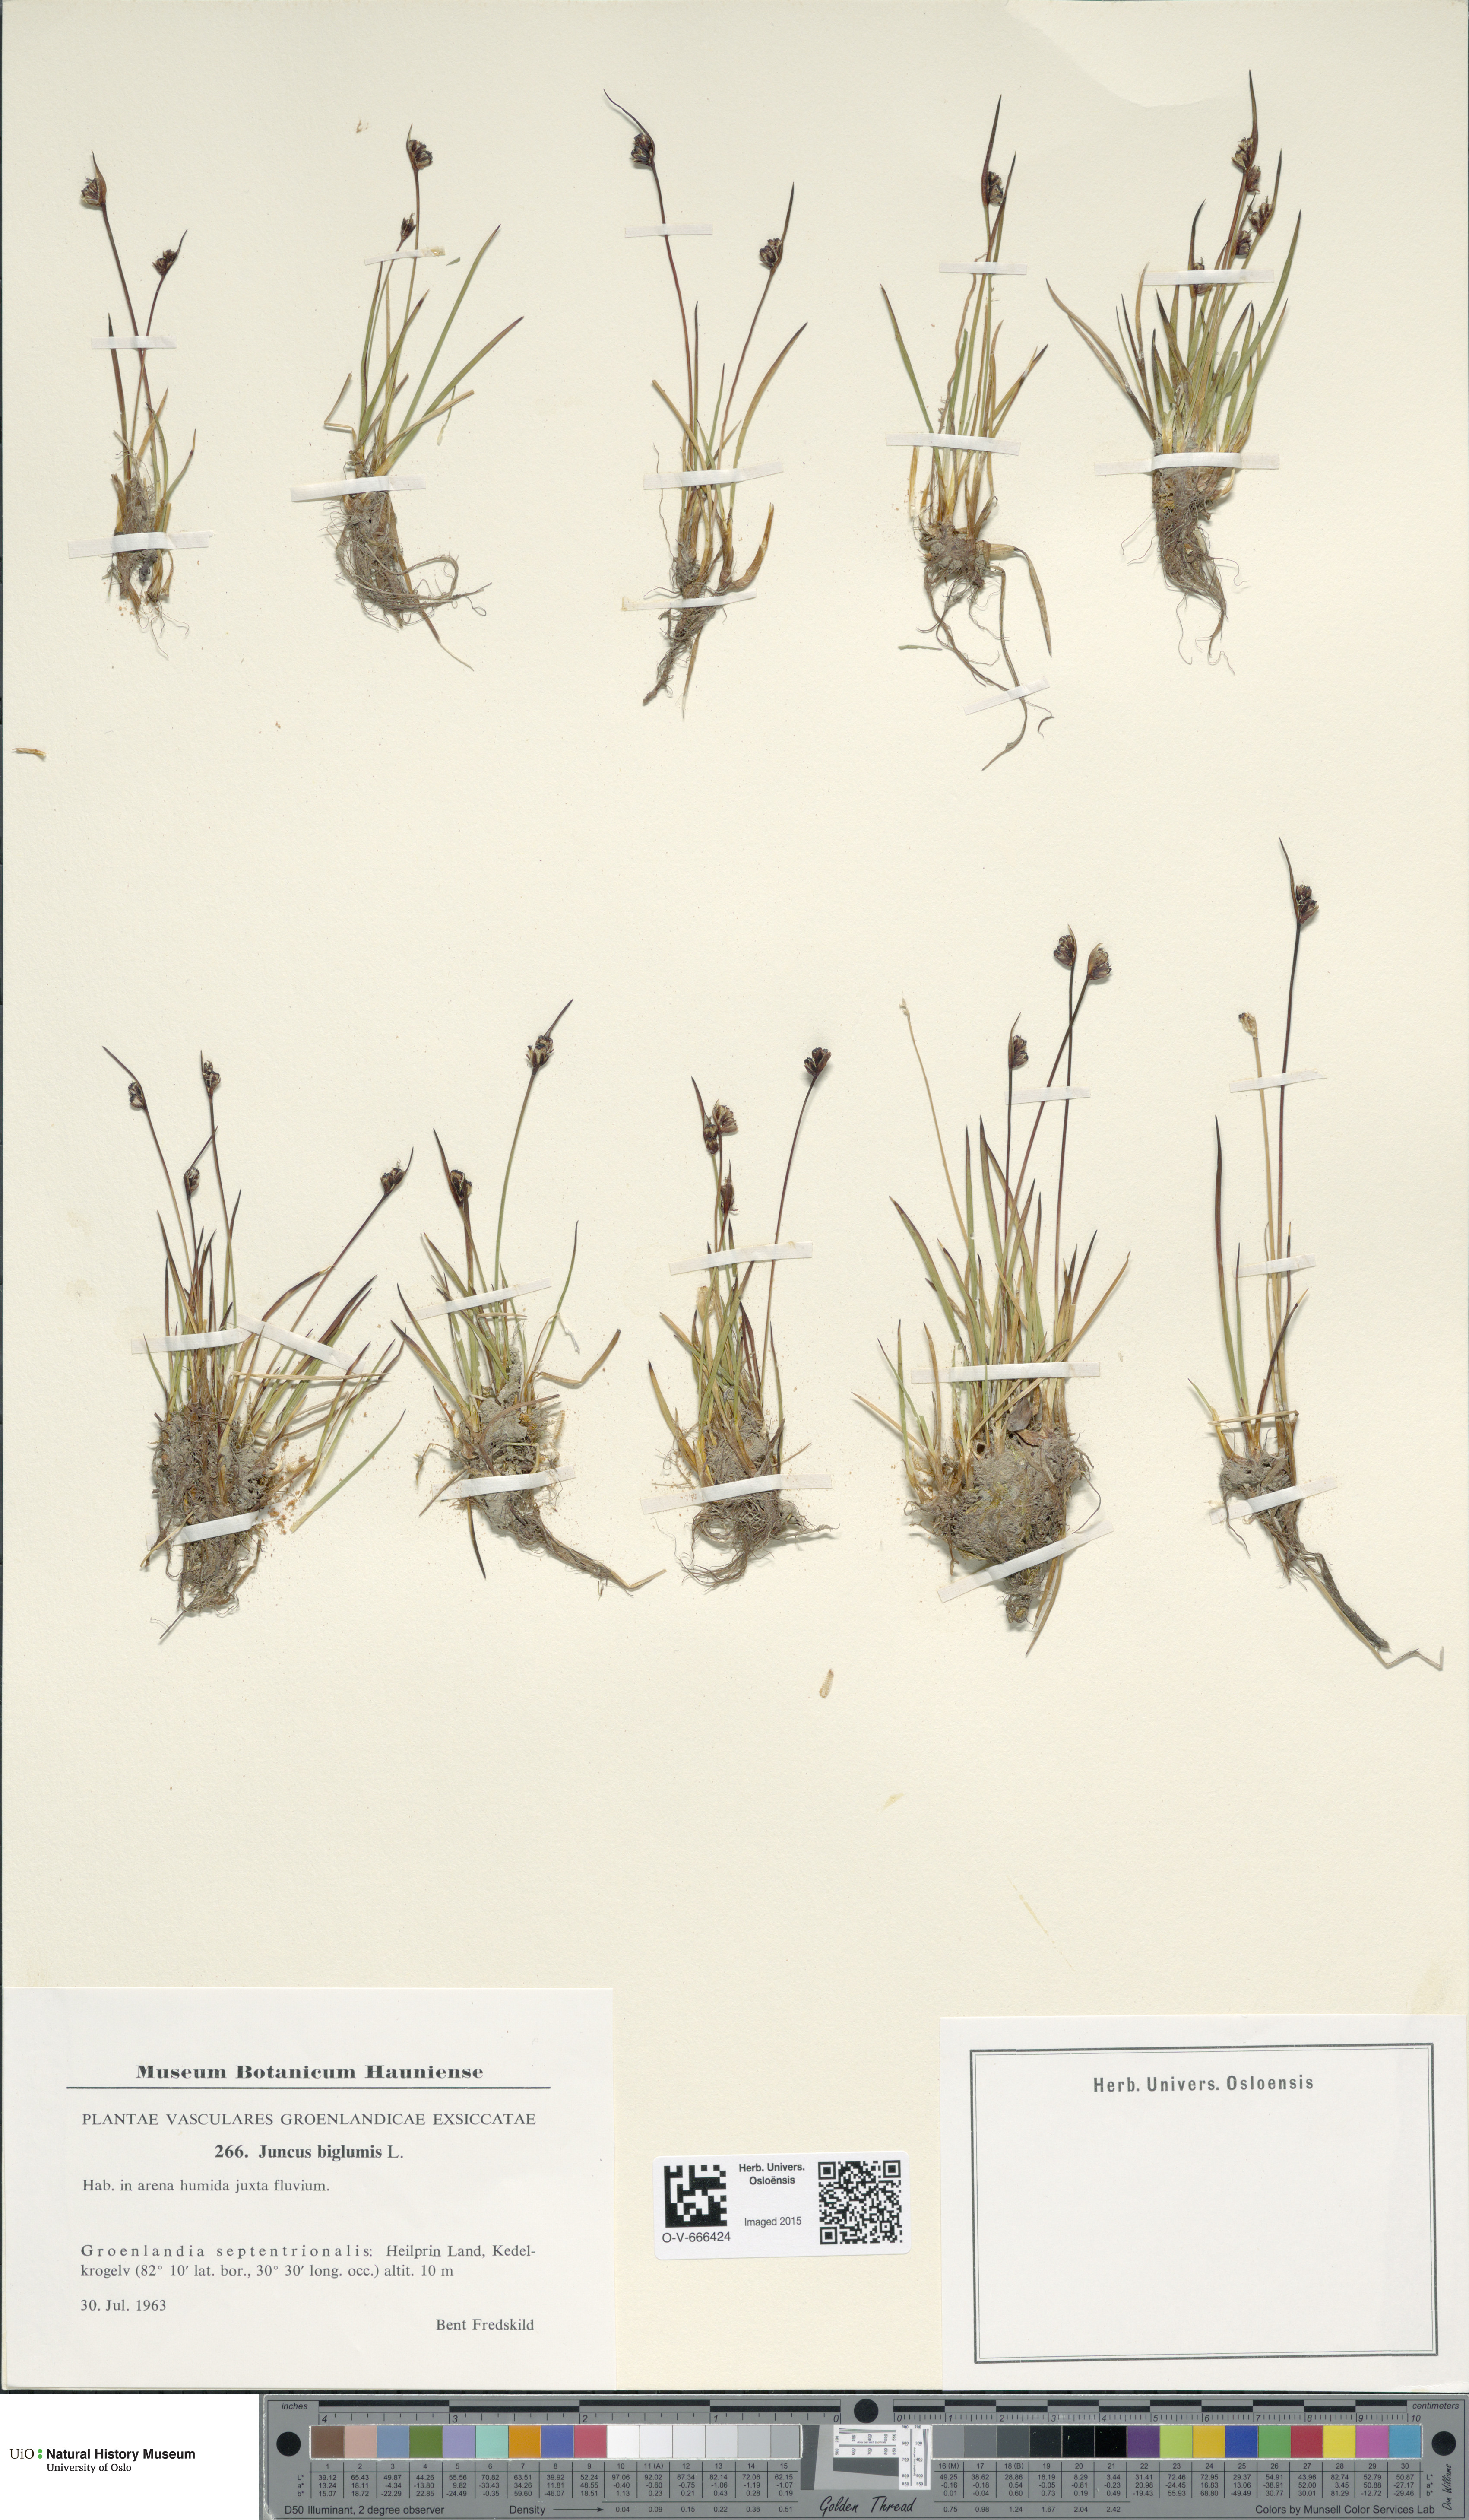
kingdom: Plantae
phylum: Tracheophyta
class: Liliopsida
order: Poales
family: Juncaceae
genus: Juncus
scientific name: Juncus biglumis
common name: Two-flowered rush
